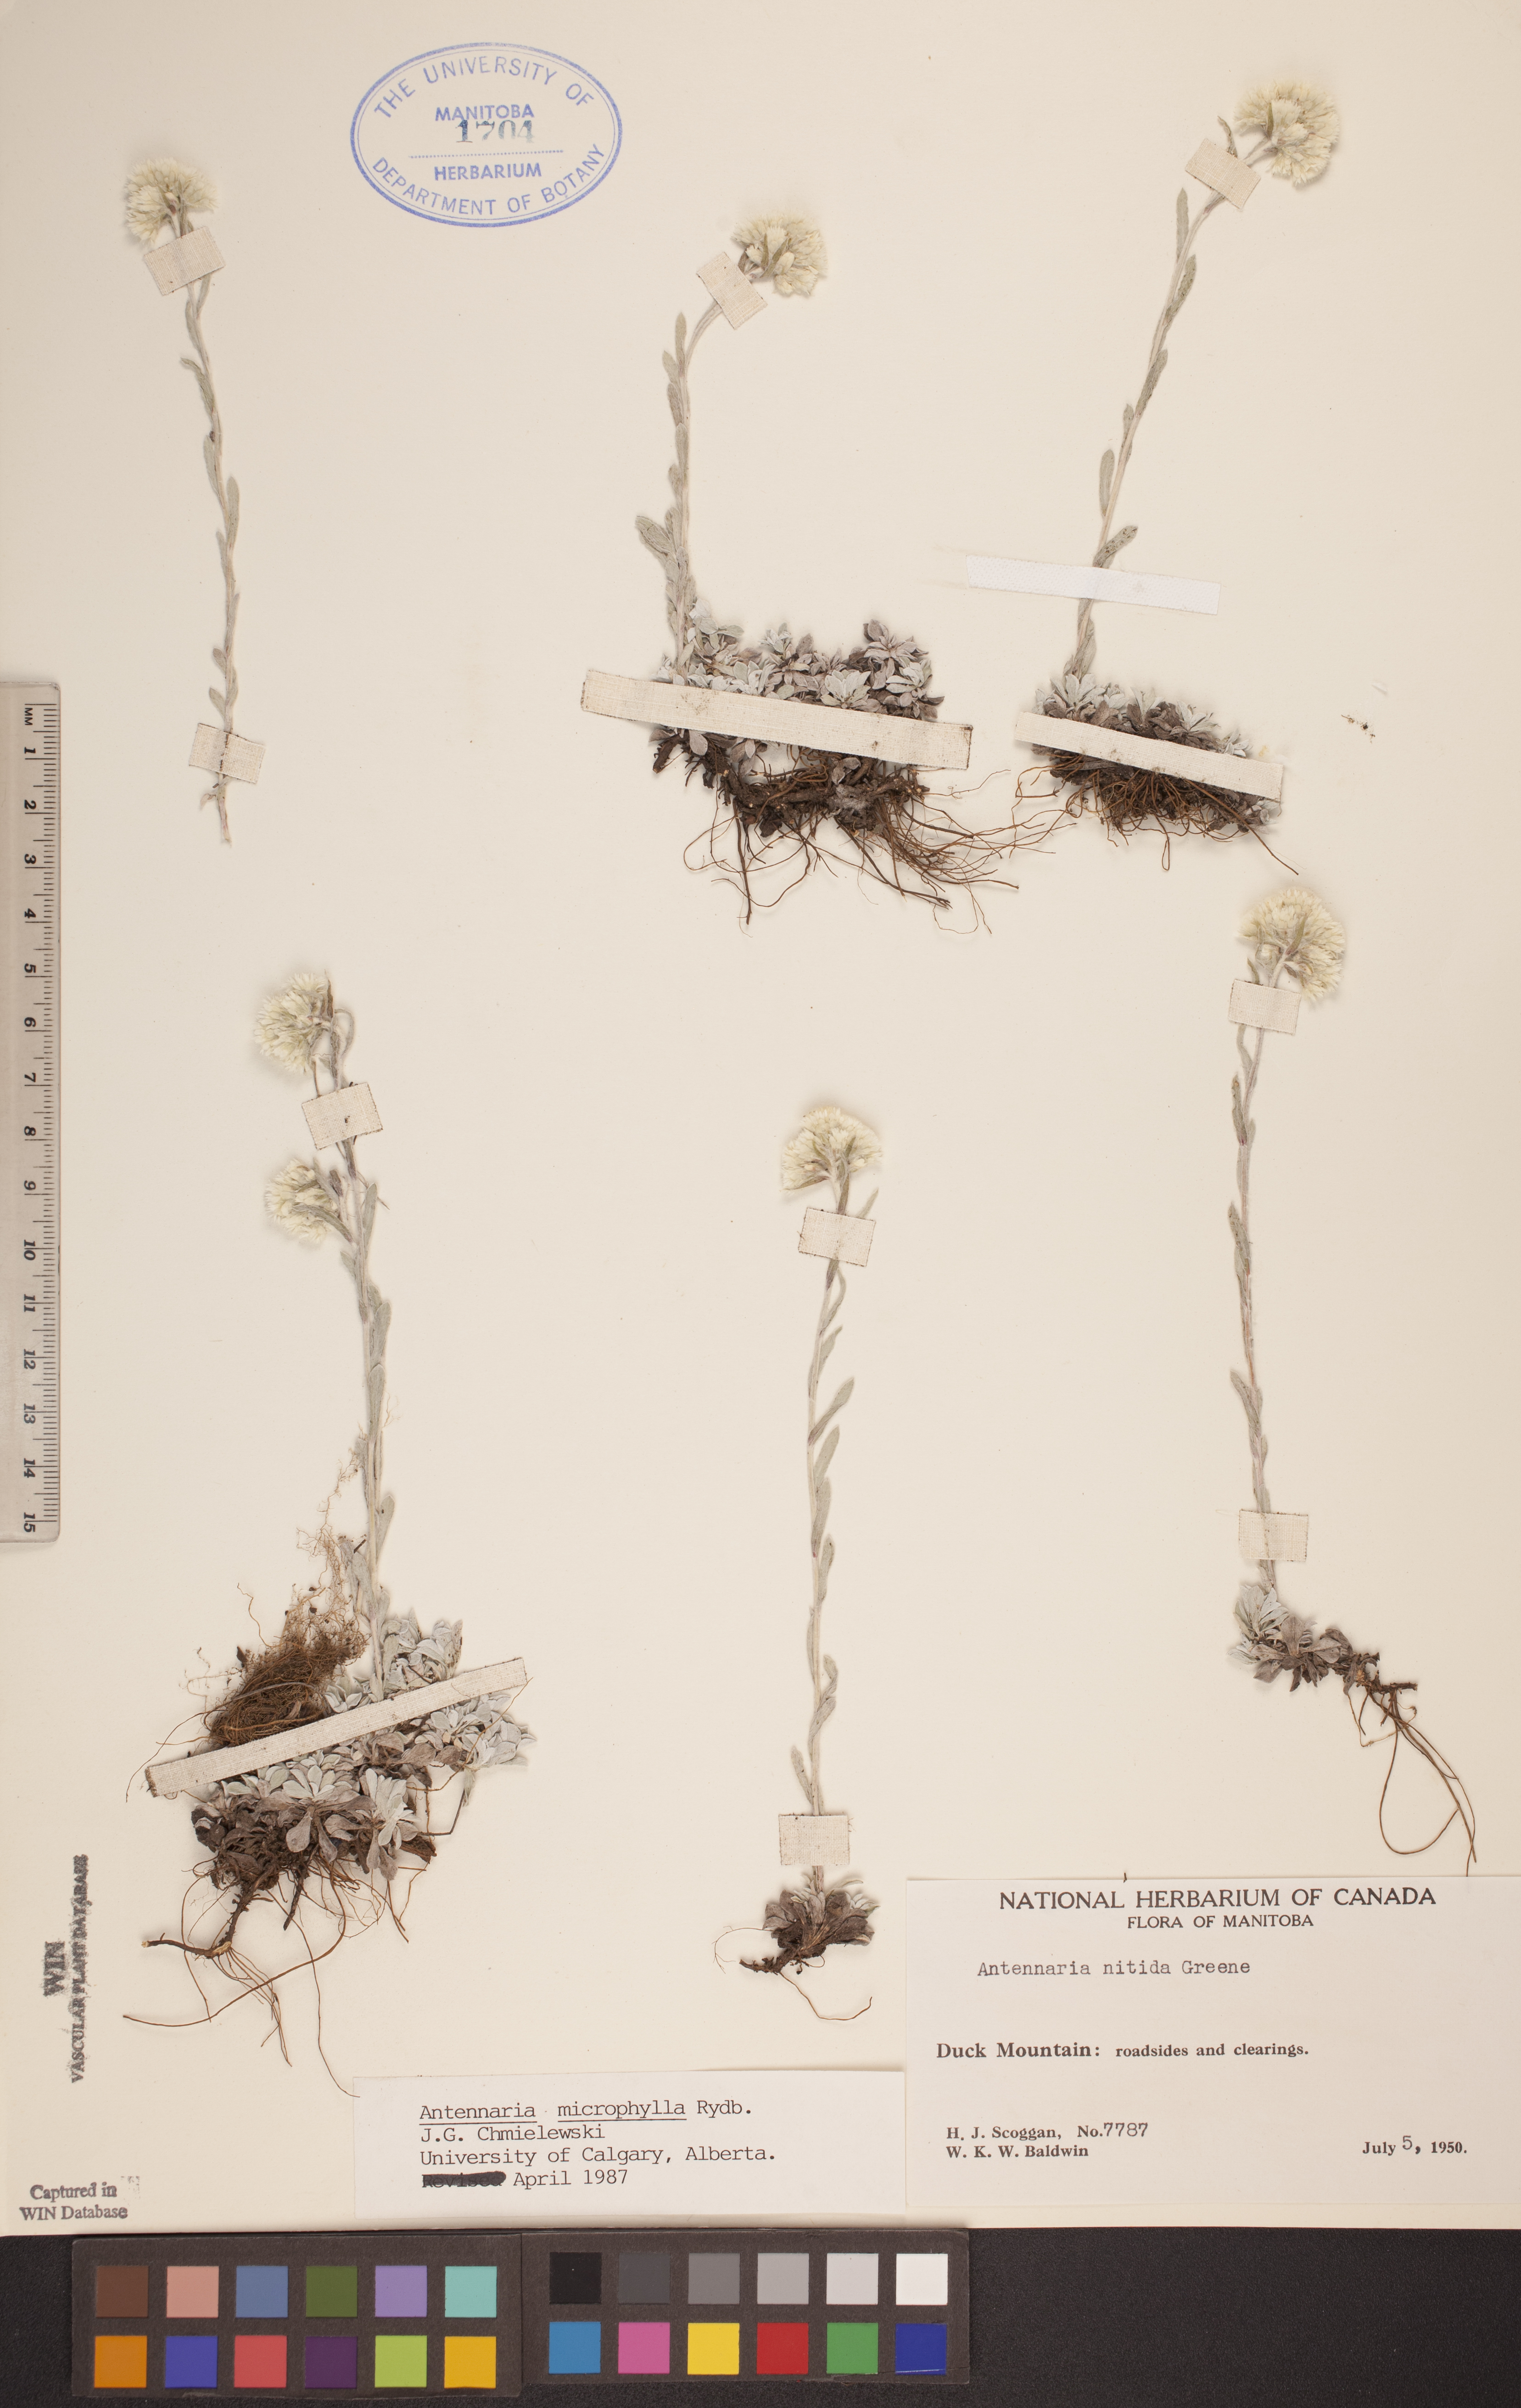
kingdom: Plantae
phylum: Tracheophyta
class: Magnoliopsida
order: Asterales
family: Asteraceae
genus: Antennaria
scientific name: Antennaria microphylla
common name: Littleleaf pussytoes
